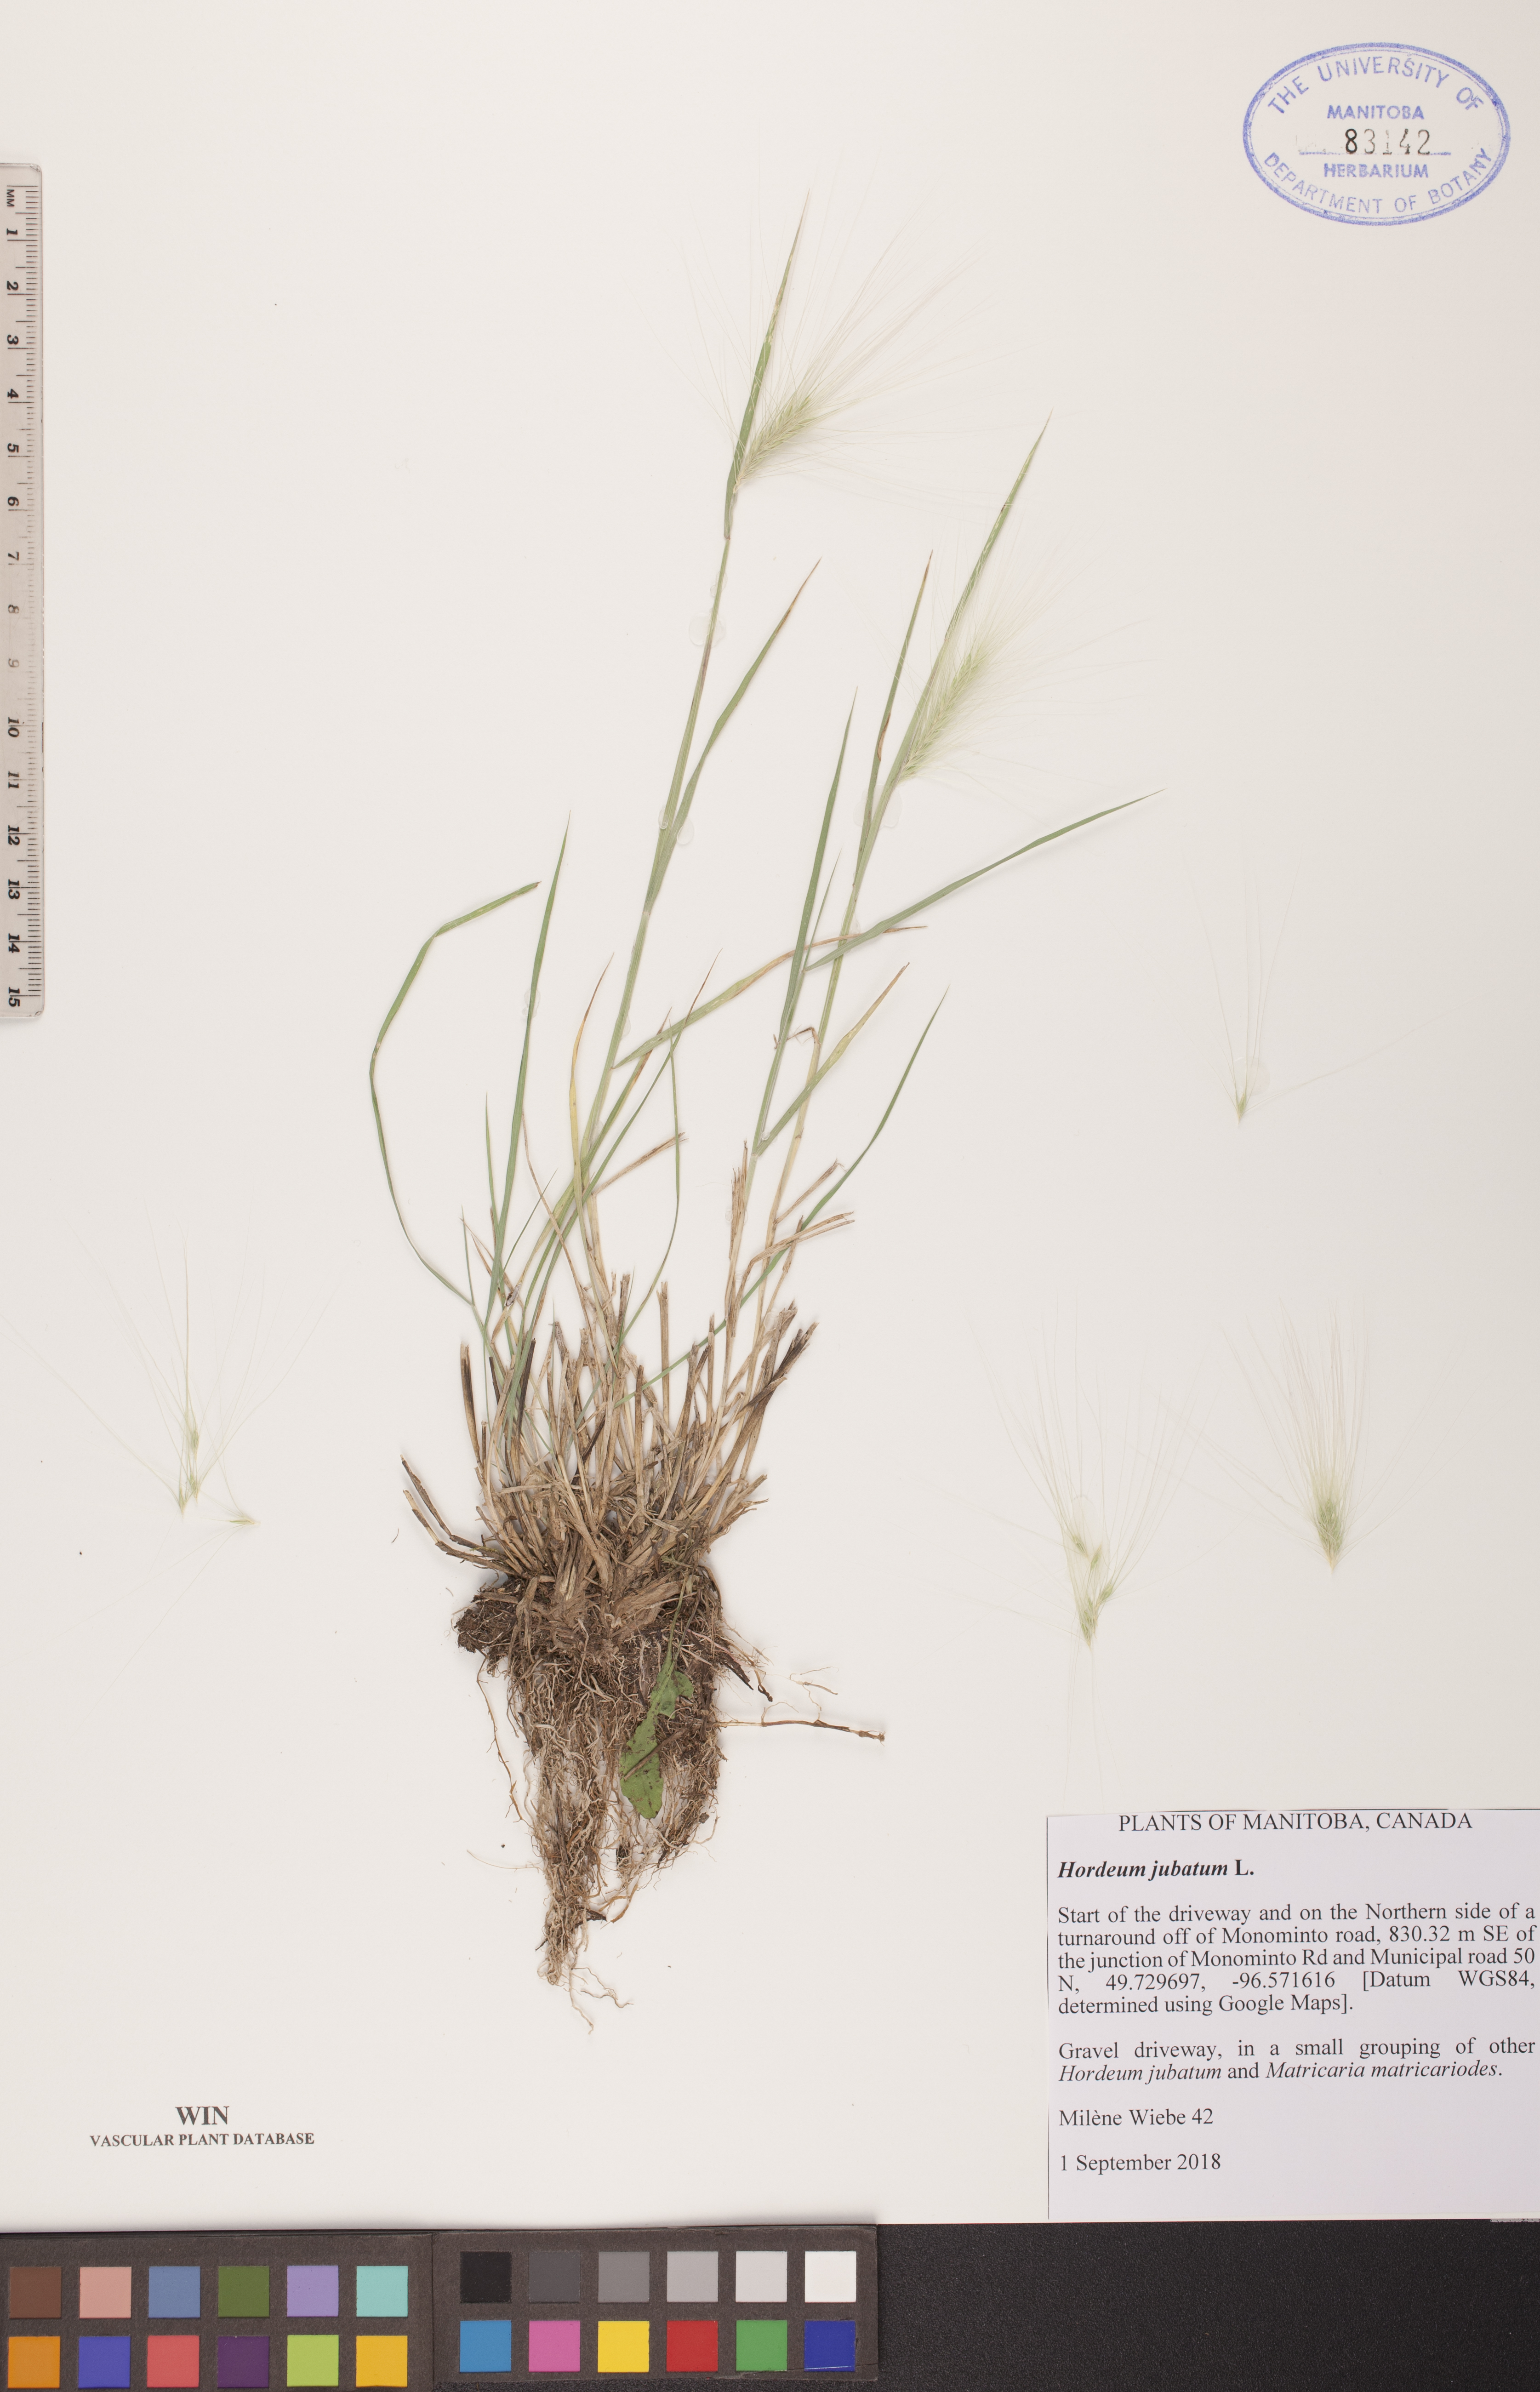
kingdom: Plantae
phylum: Tracheophyta
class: Liliopsida
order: Poales
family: Poaceae
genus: Hordeum
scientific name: Hordeum jubatum
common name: Foxtail barley
